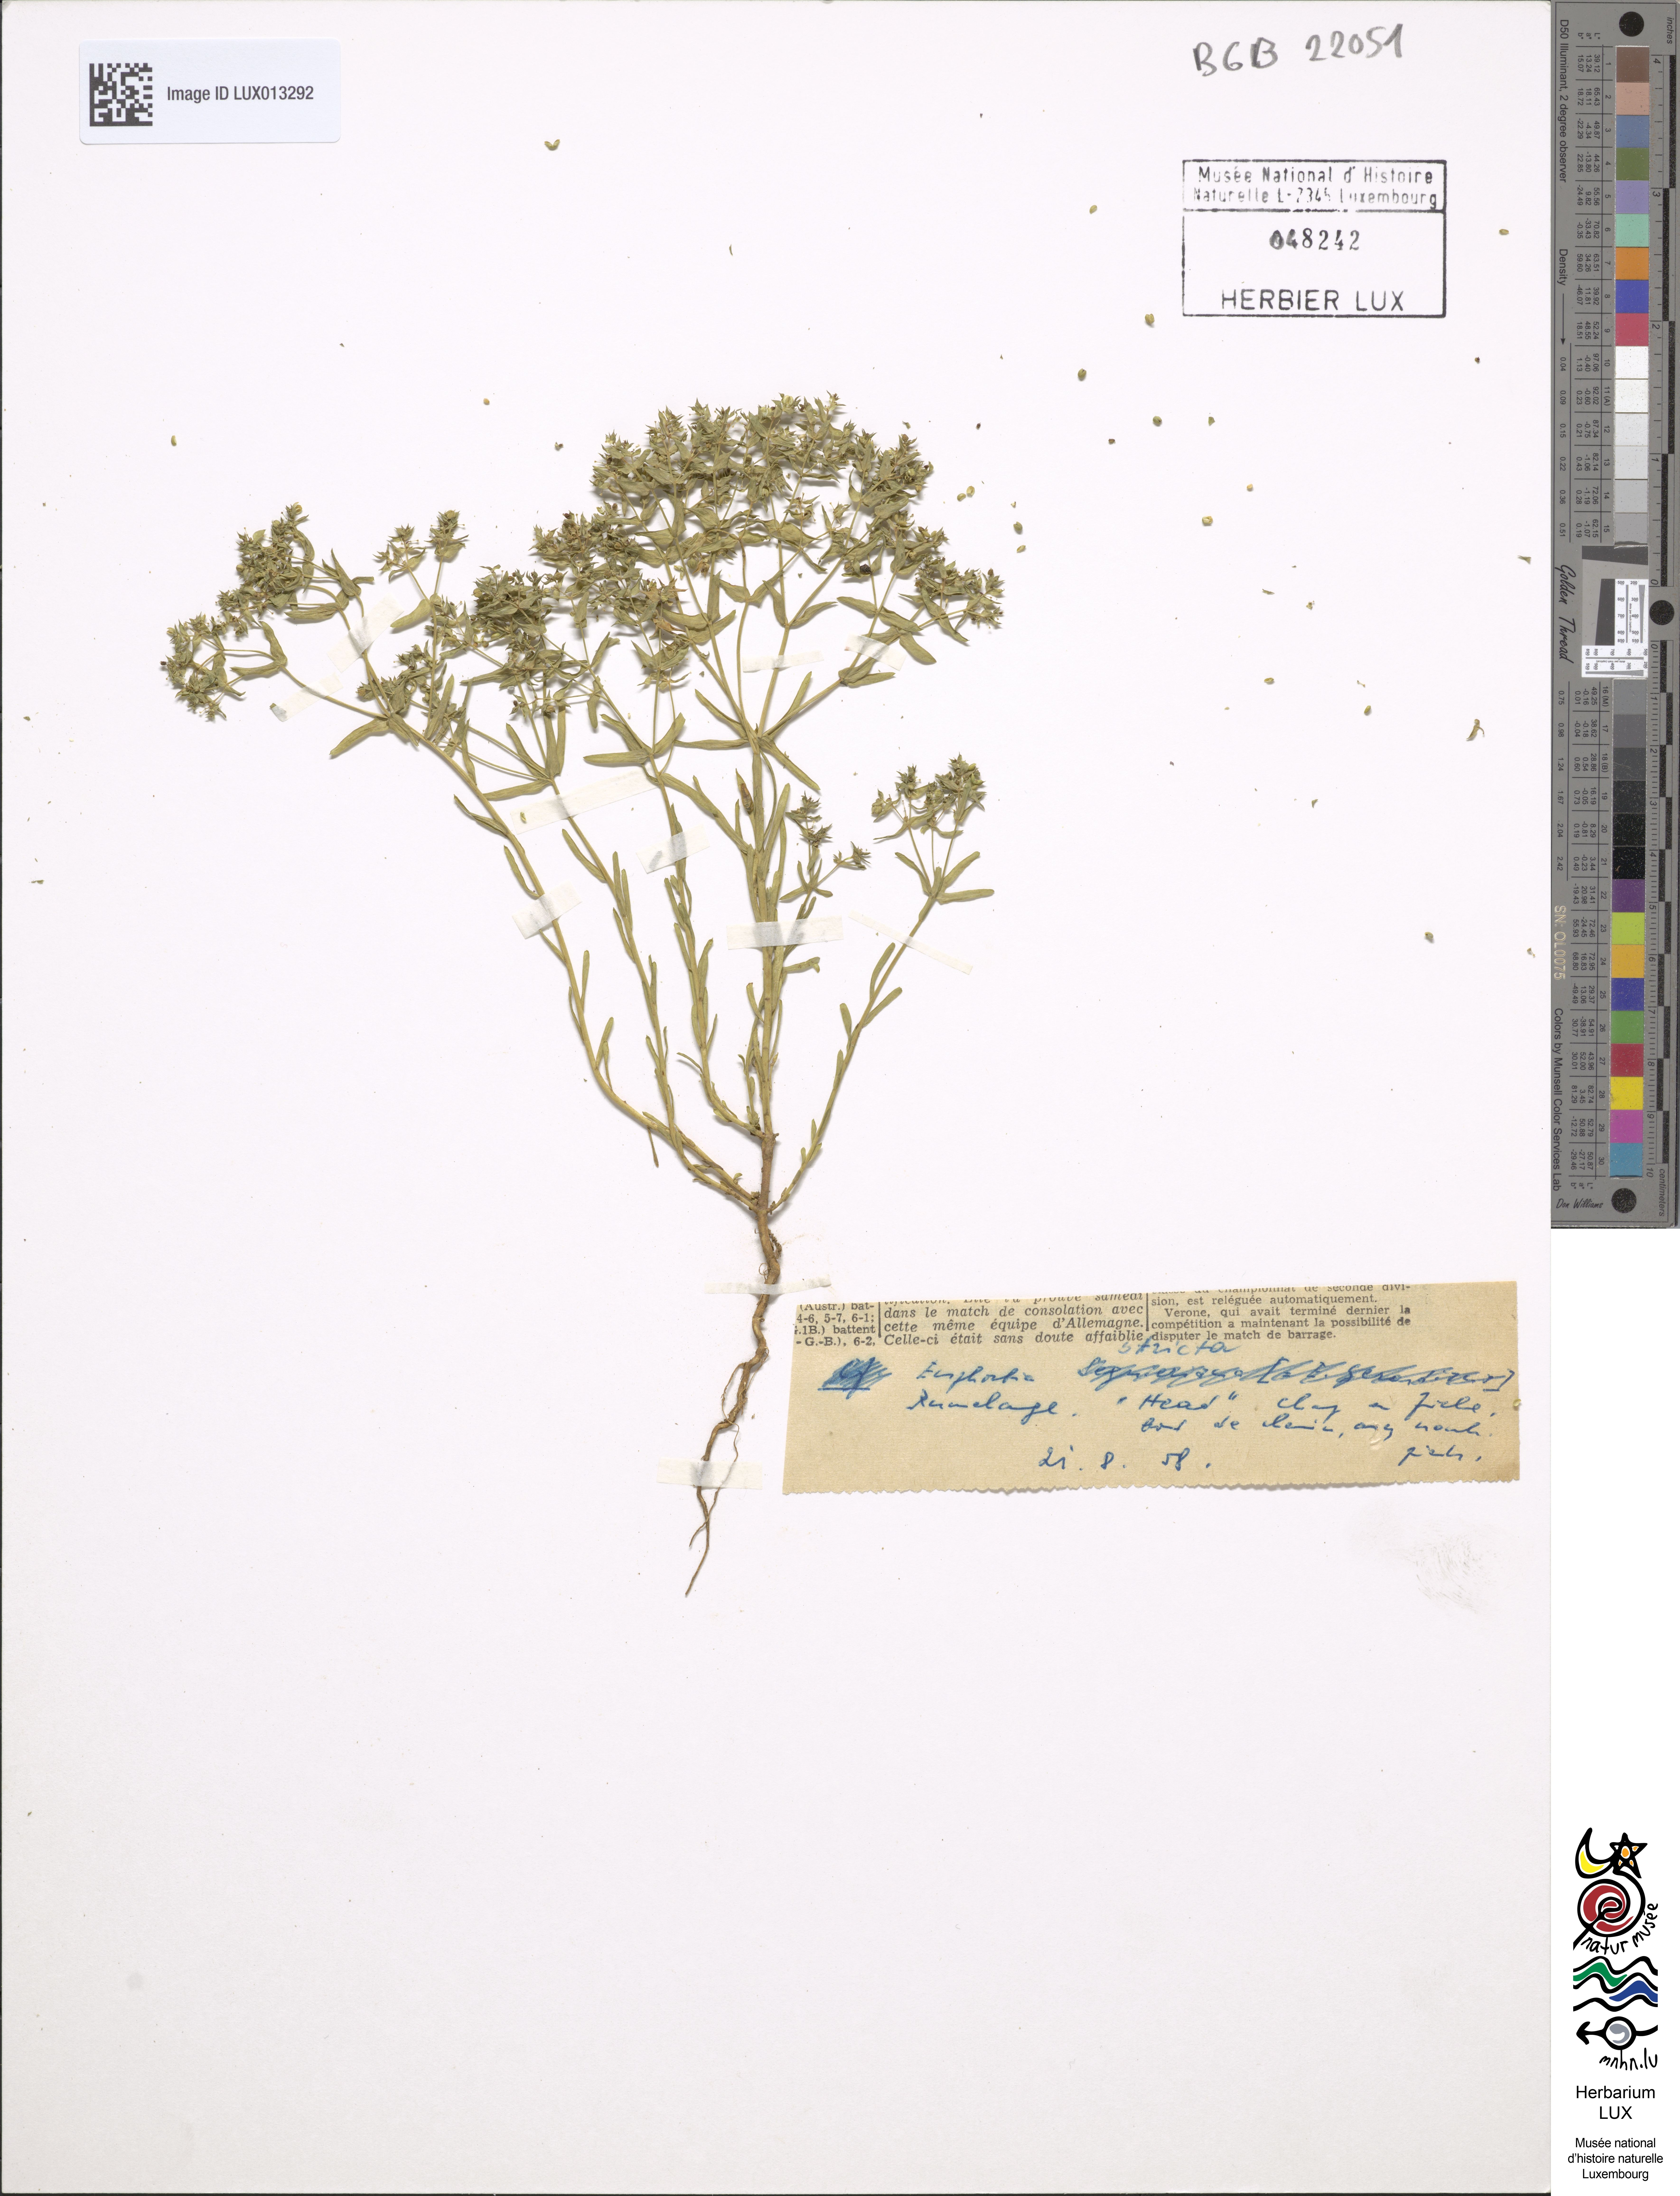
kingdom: Plantae
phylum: Tracheophyta
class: Magnoliopsida
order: Malpighiales
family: Euphorbiaceae
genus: Euphorbia
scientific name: Euphorbia stricta
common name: Upright spurge
